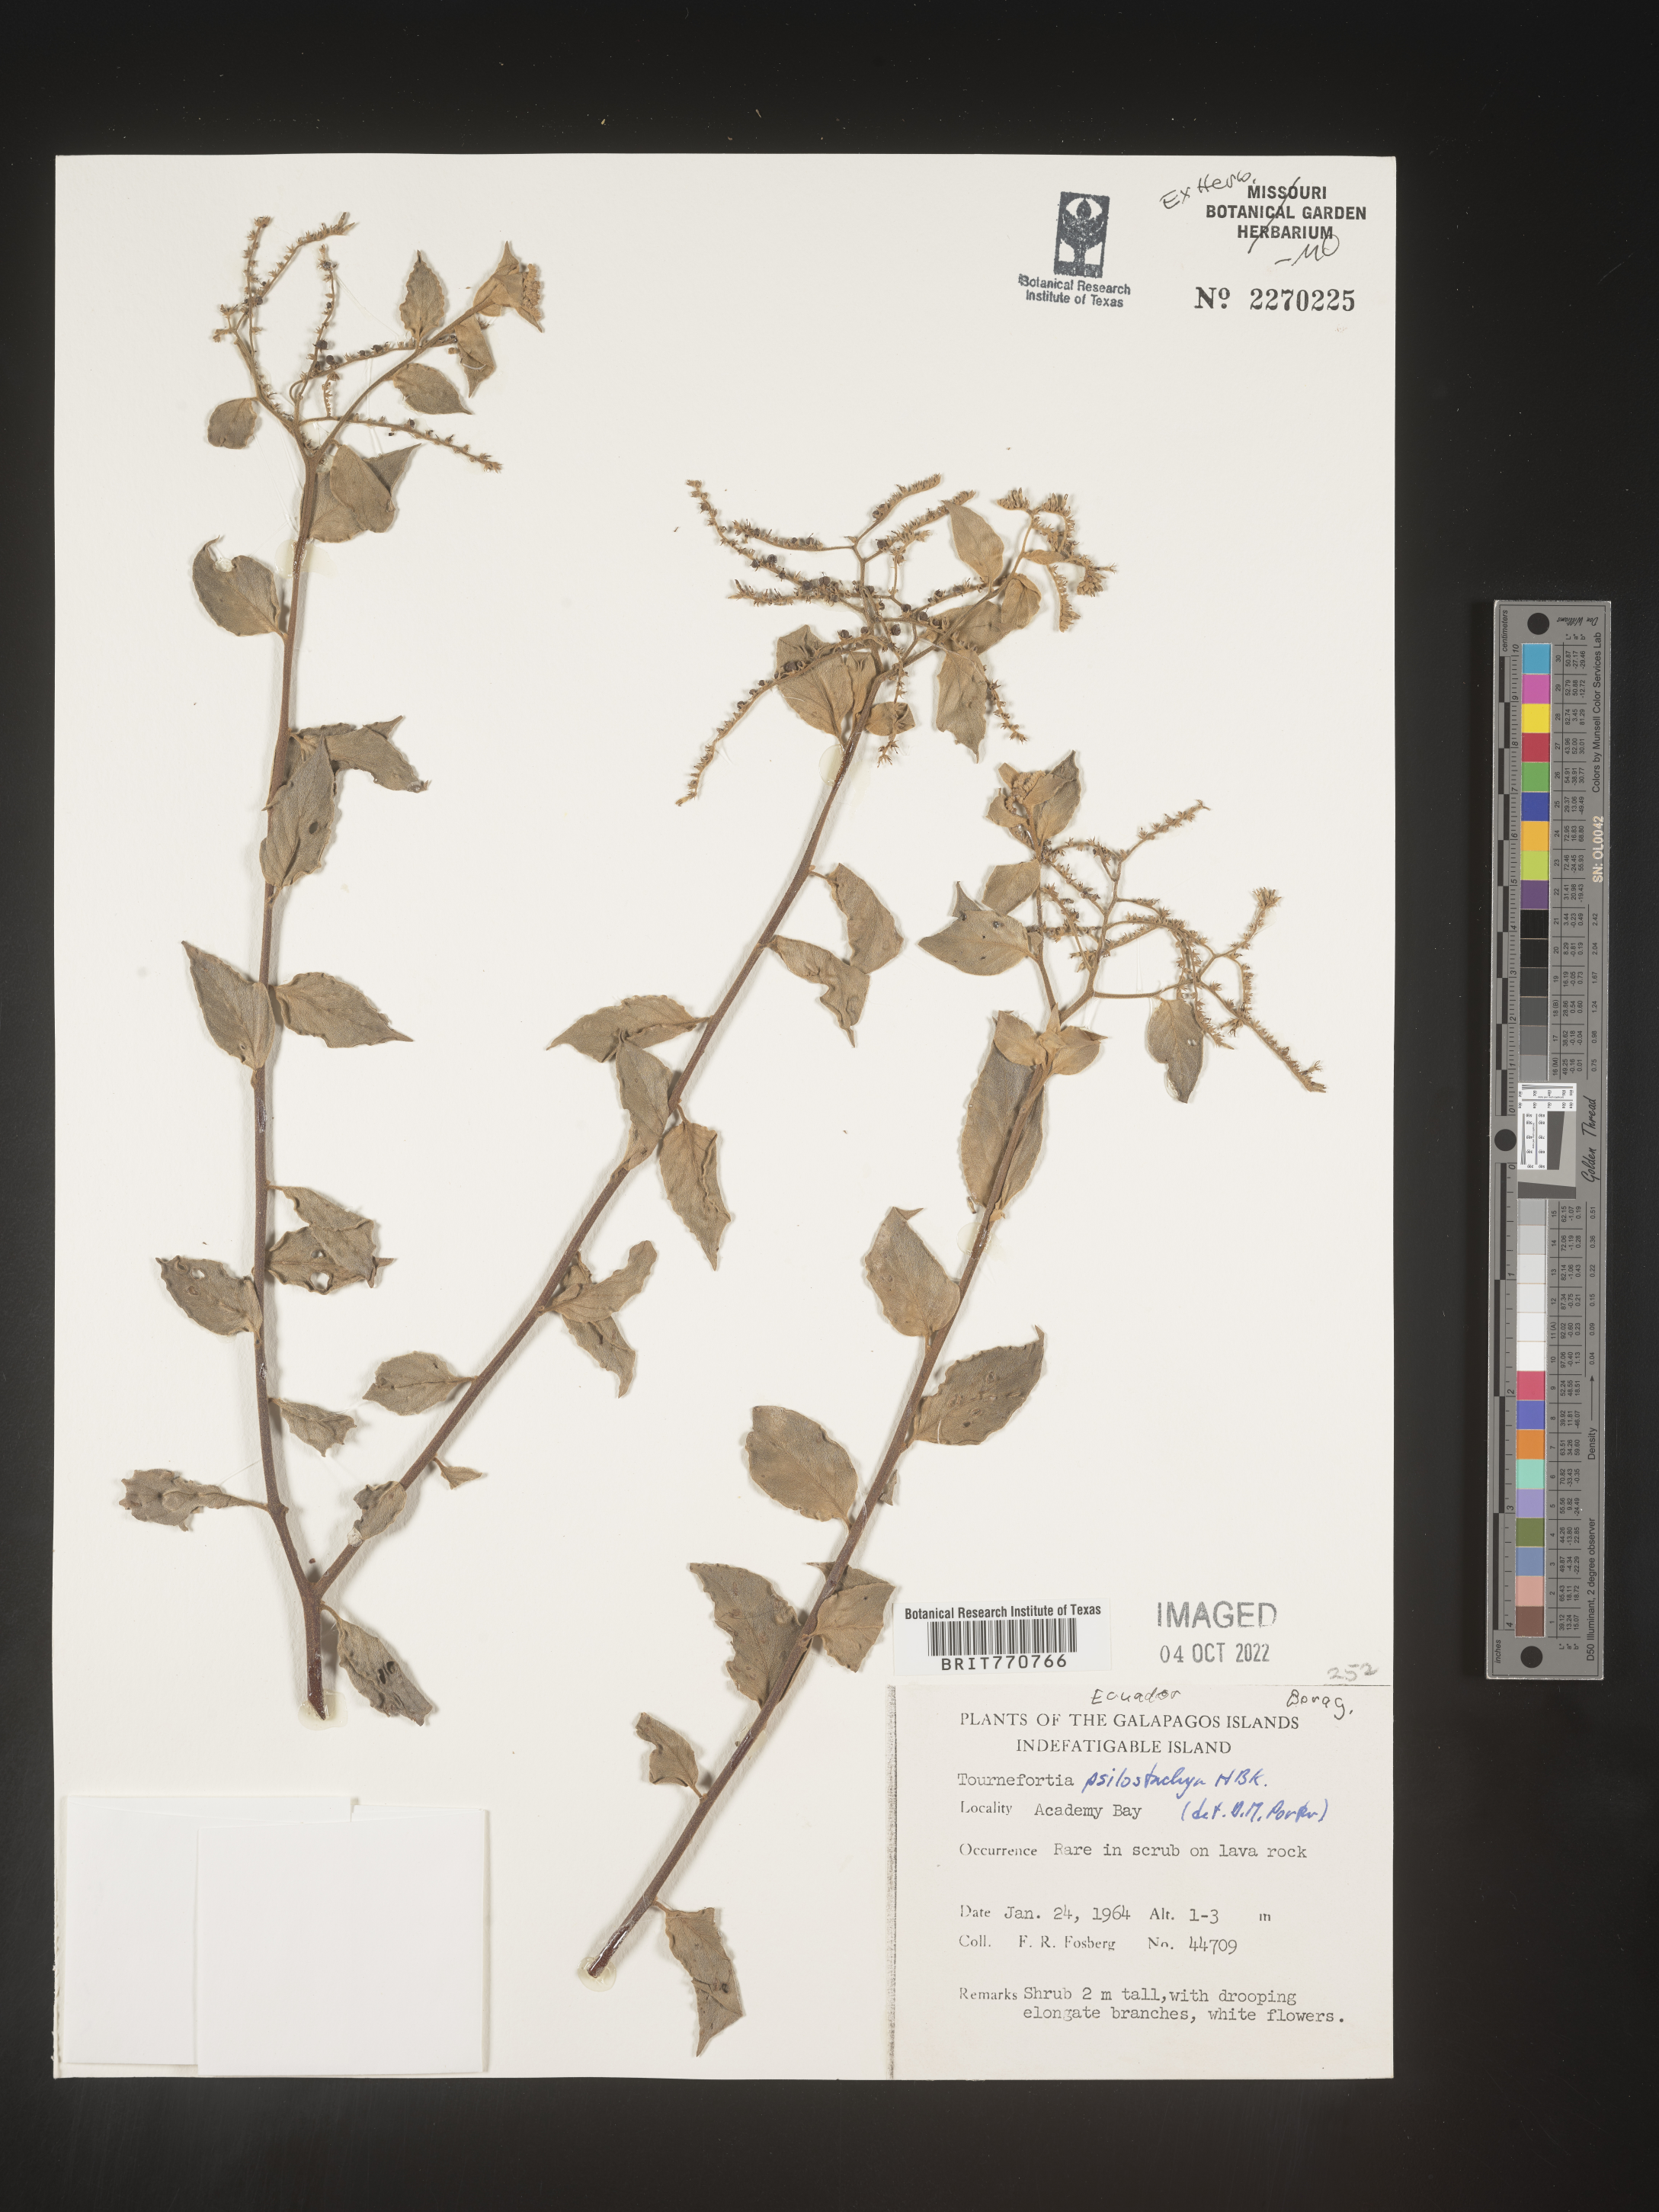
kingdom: Plantae
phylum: Tracheophyta
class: Magnoliopsida
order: Boraginales
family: Heliotropiaceae
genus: Tournefortia
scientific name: Tournefortia
